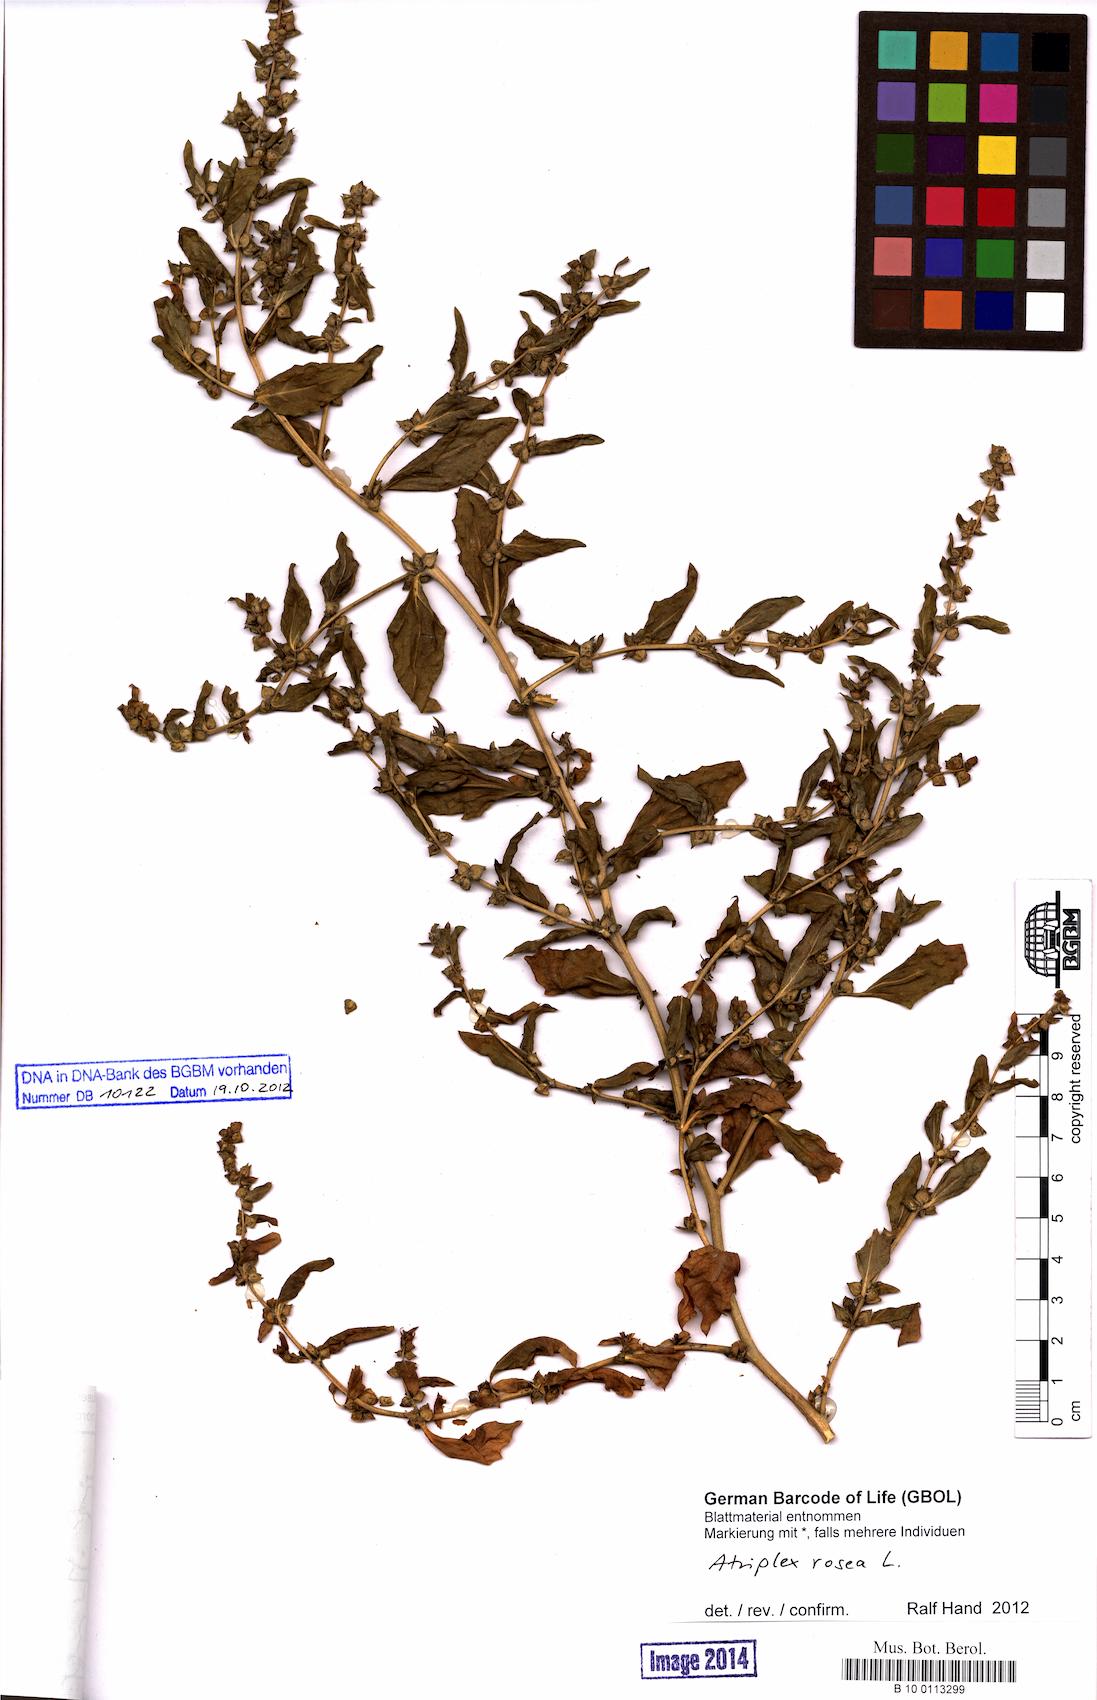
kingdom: Plantae
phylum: Tracheophyta
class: Magnoliopsida
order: Caryophyllales
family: Amaranthaceae
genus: Atriplex
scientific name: Atriplex rosea
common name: Tumbling saltweed
